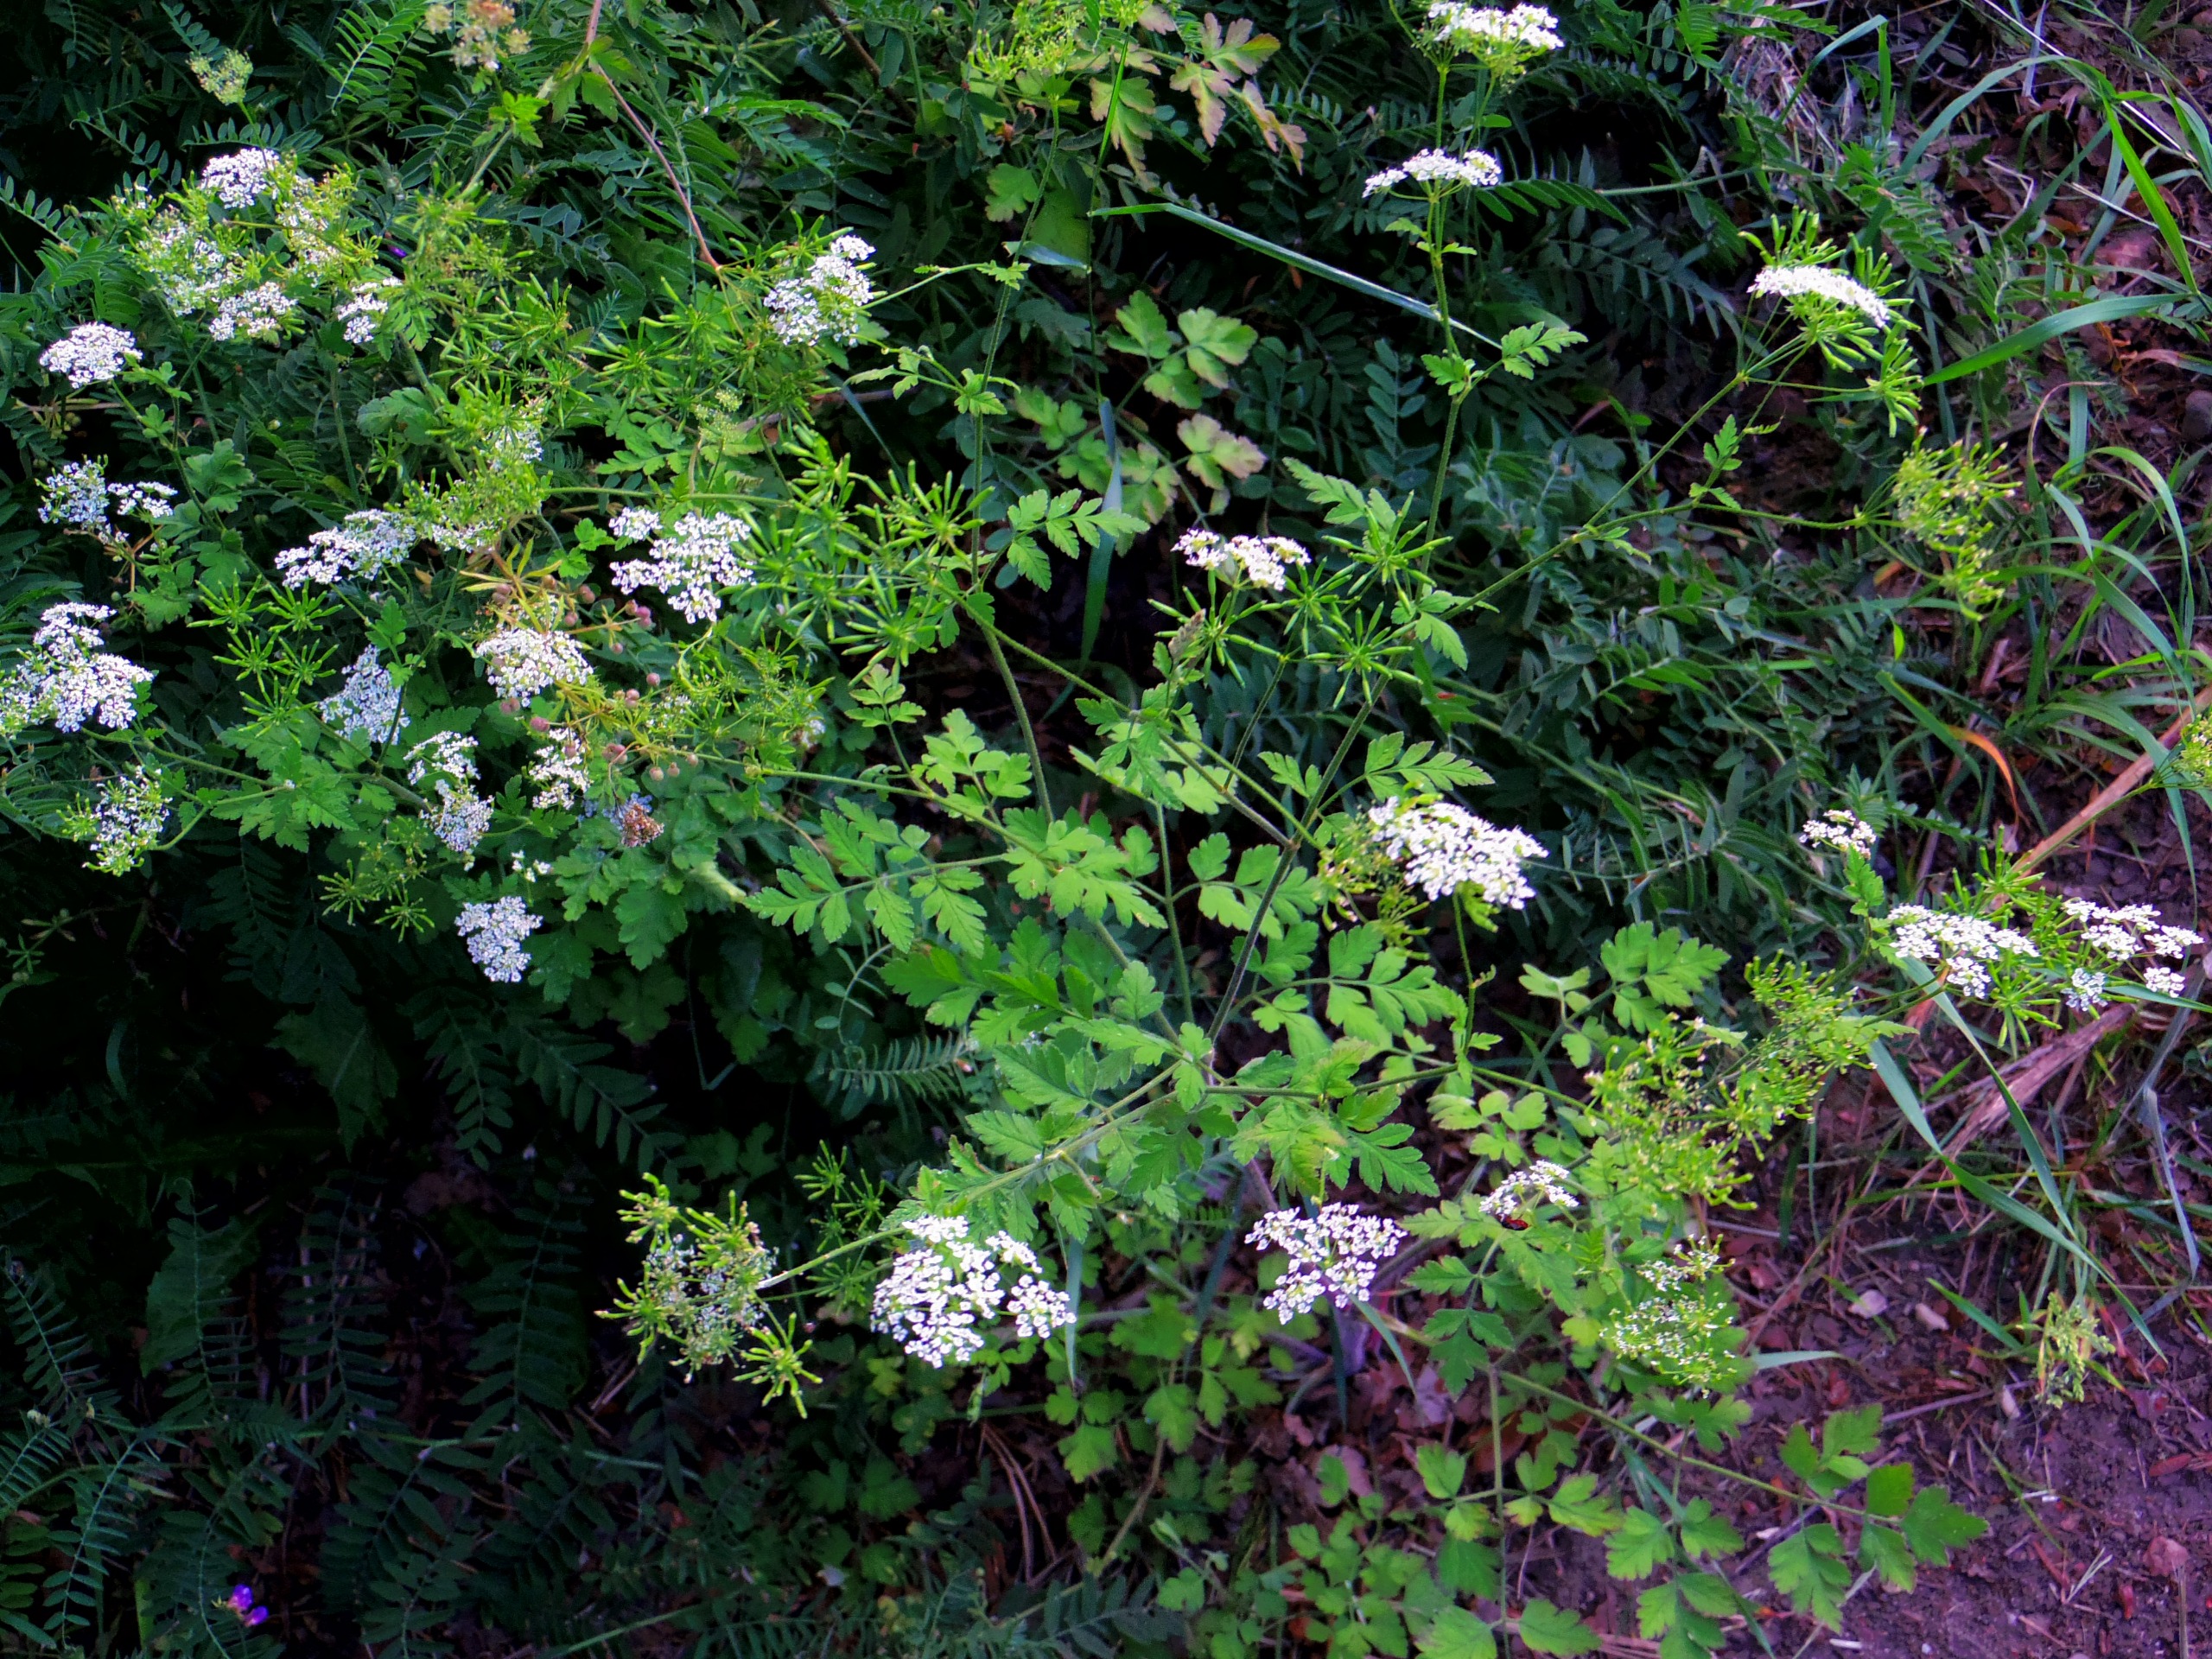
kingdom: Plantae
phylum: Tracheophyta
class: Magnoliopsida
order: Apiales
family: Apiaceae
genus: Chaerophyllum
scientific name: Chaerophyllum temulum
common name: Almindelig hulsvøb
